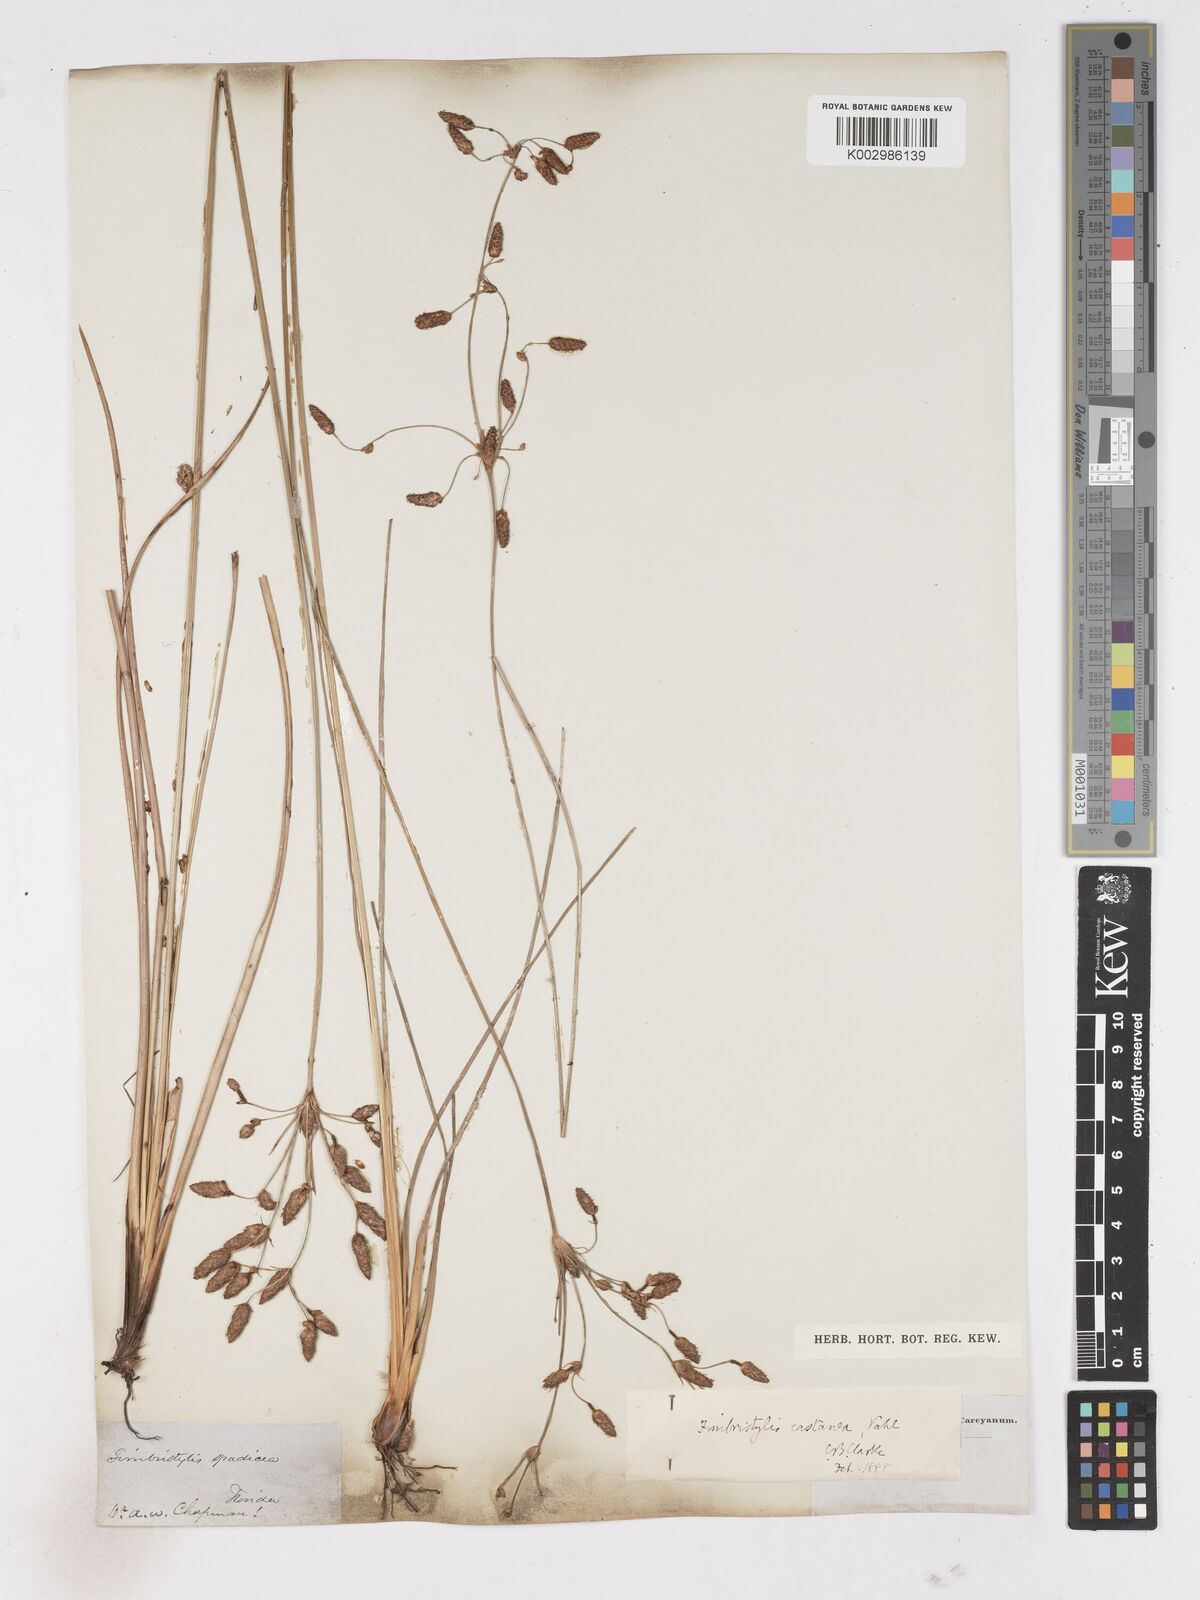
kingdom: Plantae
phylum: Tracheophyta
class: Liliopsida
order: Poales
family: Cyperaceae
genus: Fimbristylis
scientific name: Fimbristylis spadicea
